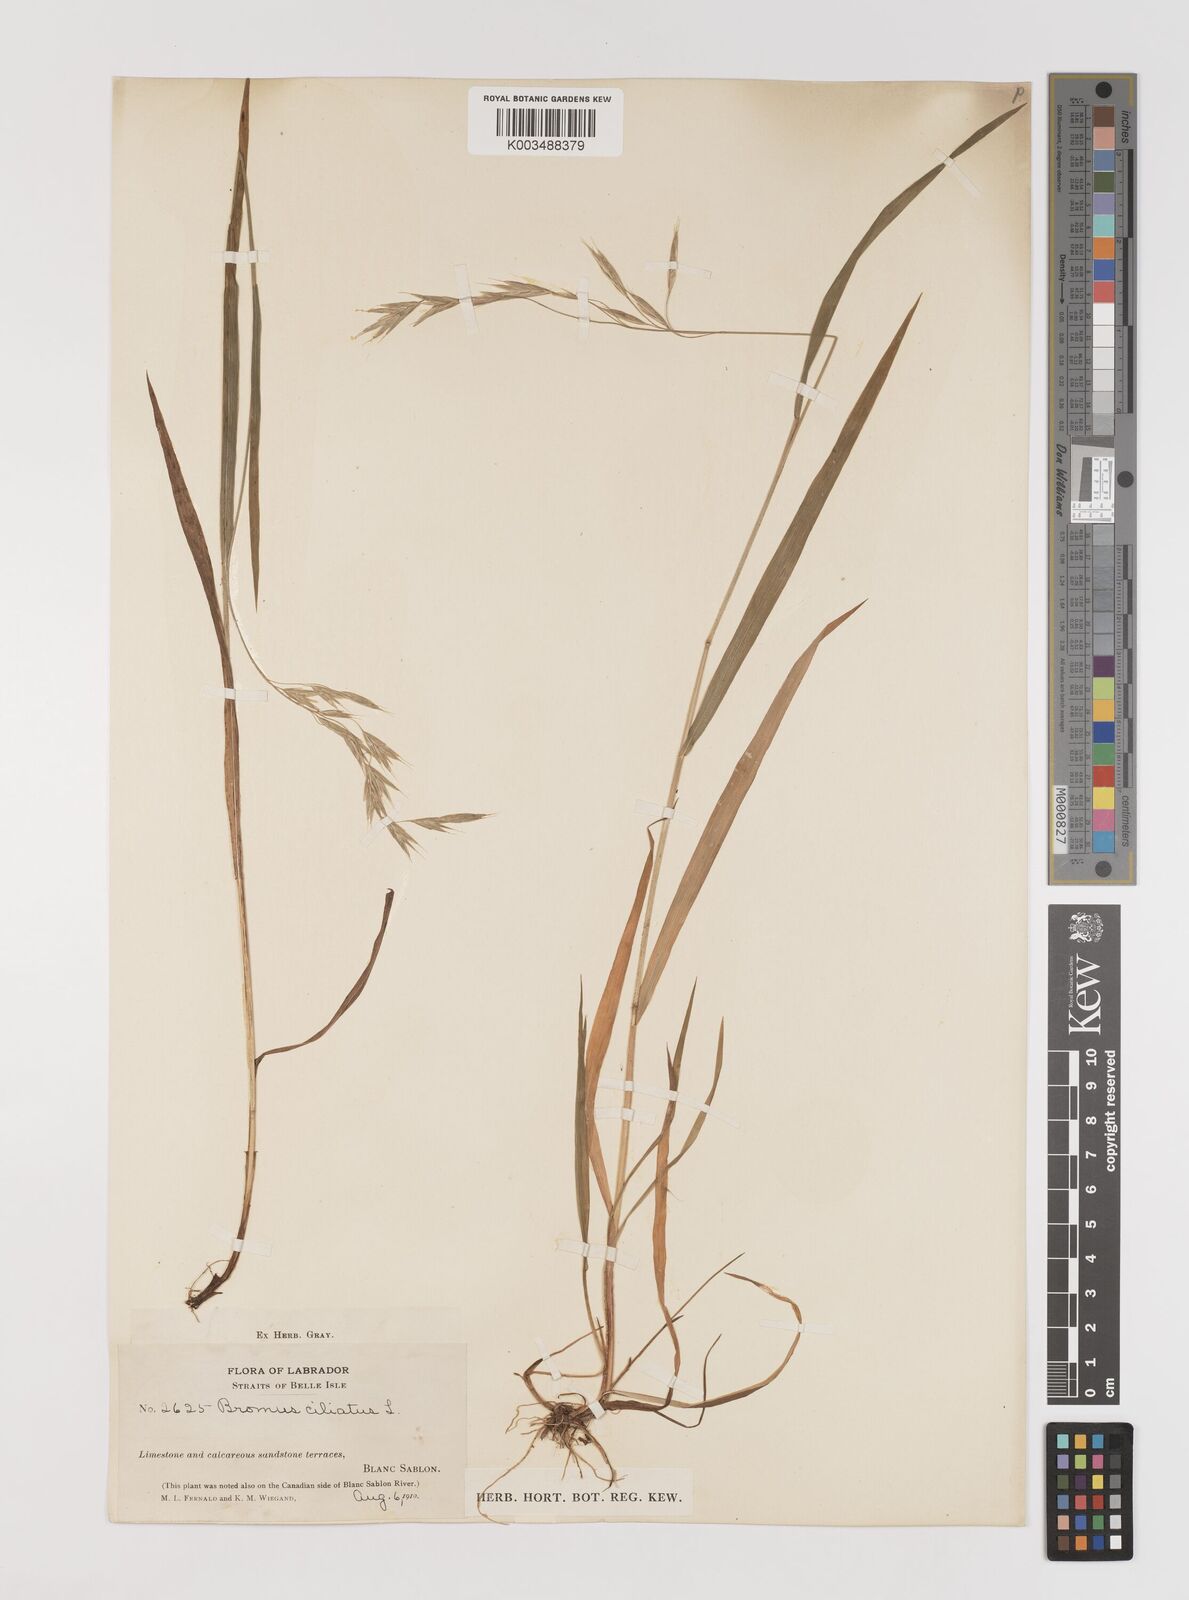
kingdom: Plantae
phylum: Tracheophyta
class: Liliopsida
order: Poales
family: Poaceae
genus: Bromus
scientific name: Bromus ciliatus
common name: Fringe brome
